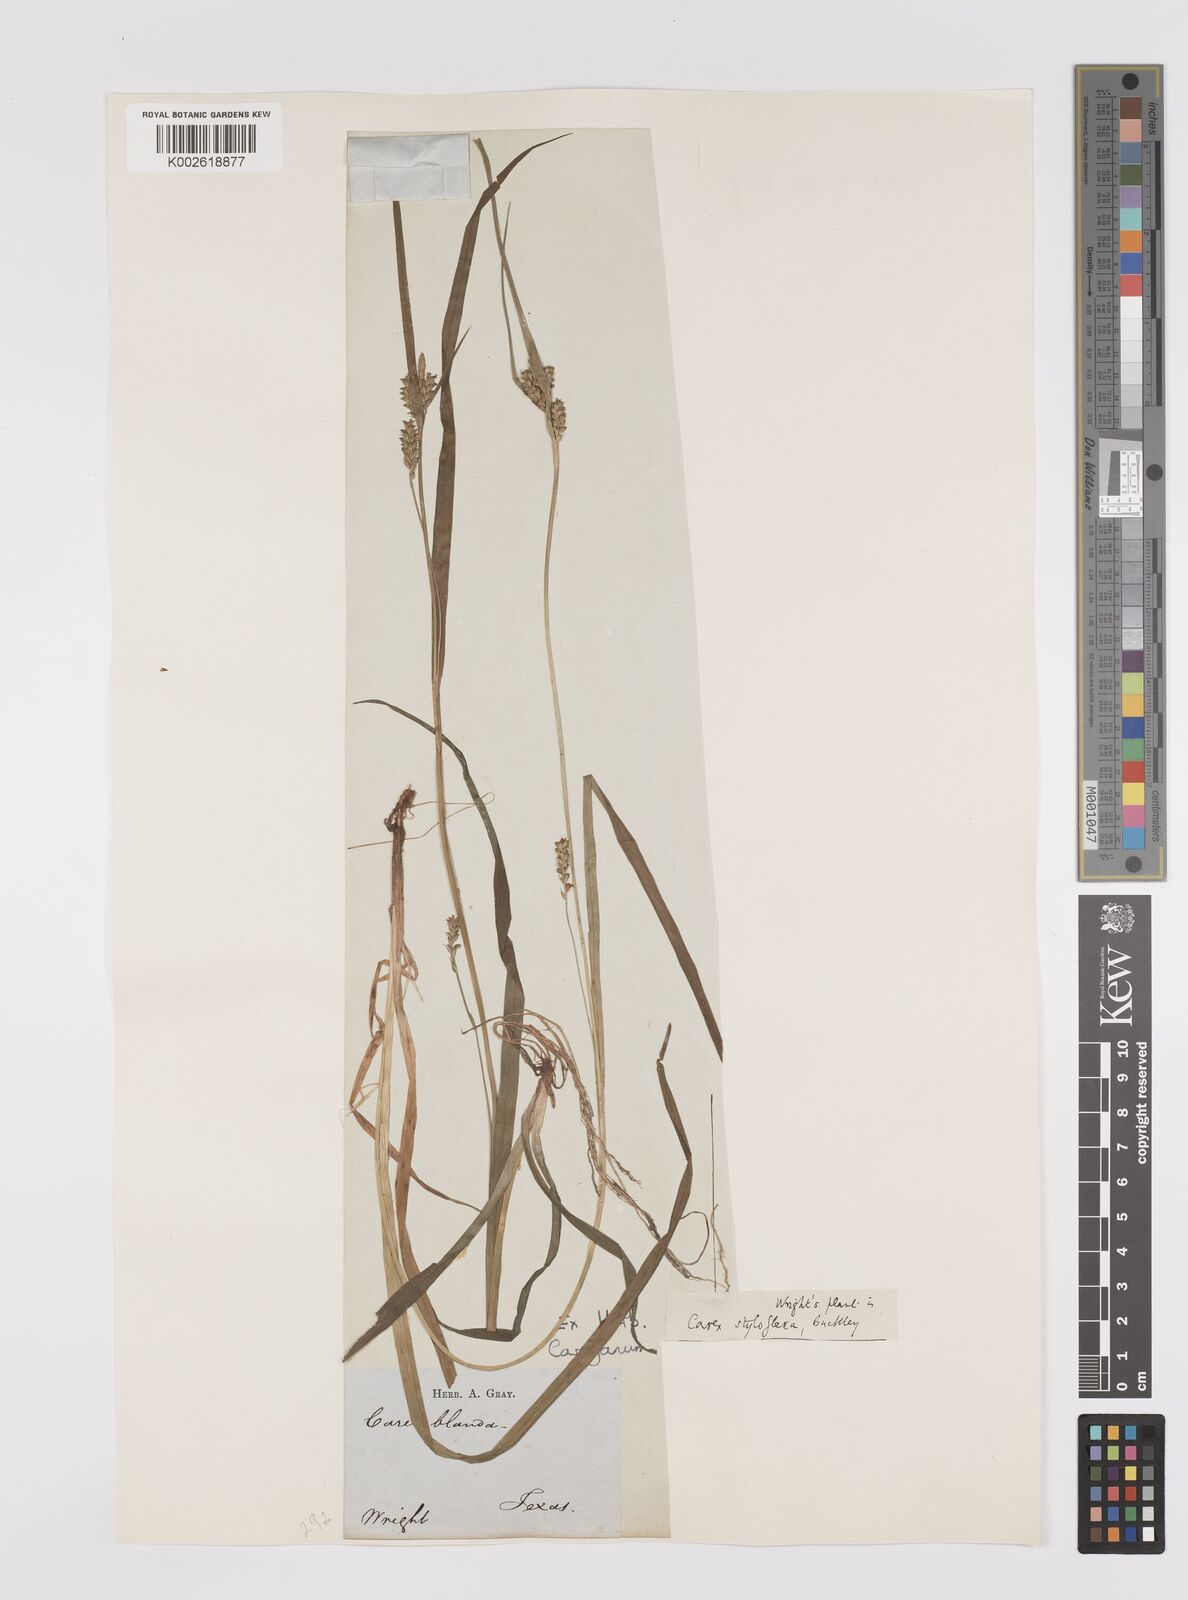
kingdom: Plantae
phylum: Tracheophyta
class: Liliopsida
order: Poales
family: Cyperaceae
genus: Carex
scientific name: Carex styloflexa
